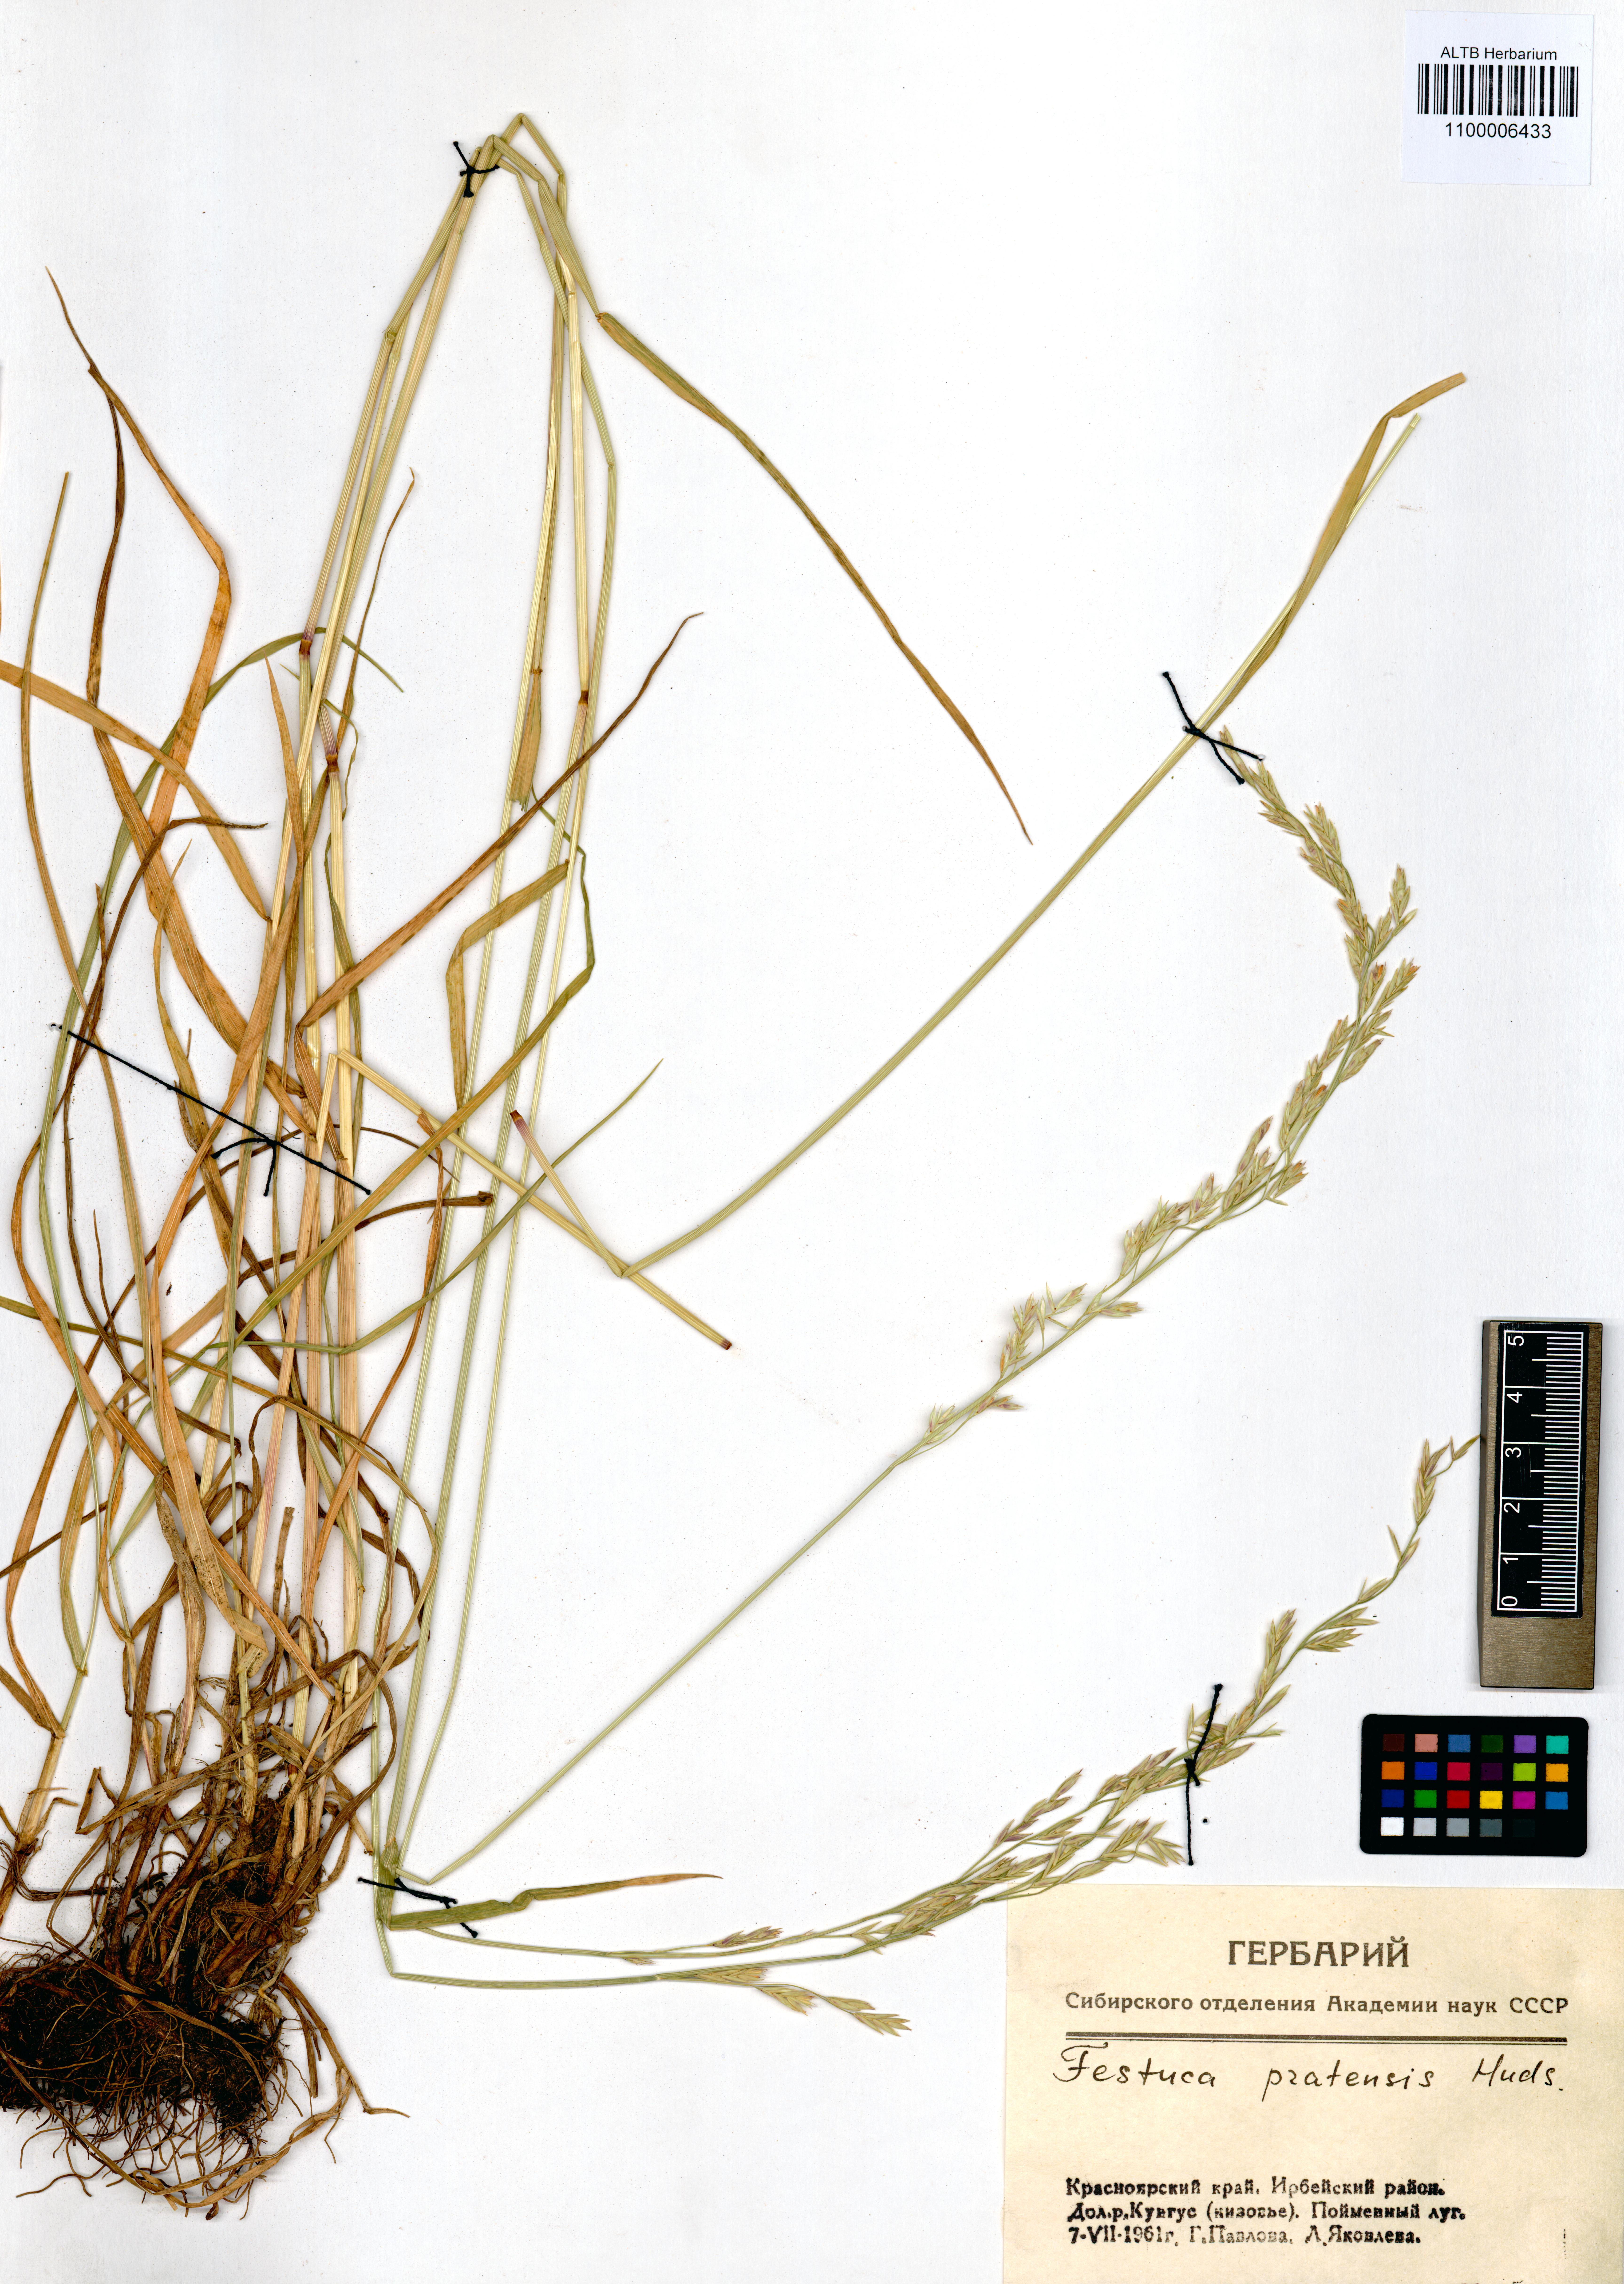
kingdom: Plantae
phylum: Tracheophyta
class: Liliopsida
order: Poales
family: Poaceae
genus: Lolium
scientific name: Lolium pratense
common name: Dover grass
